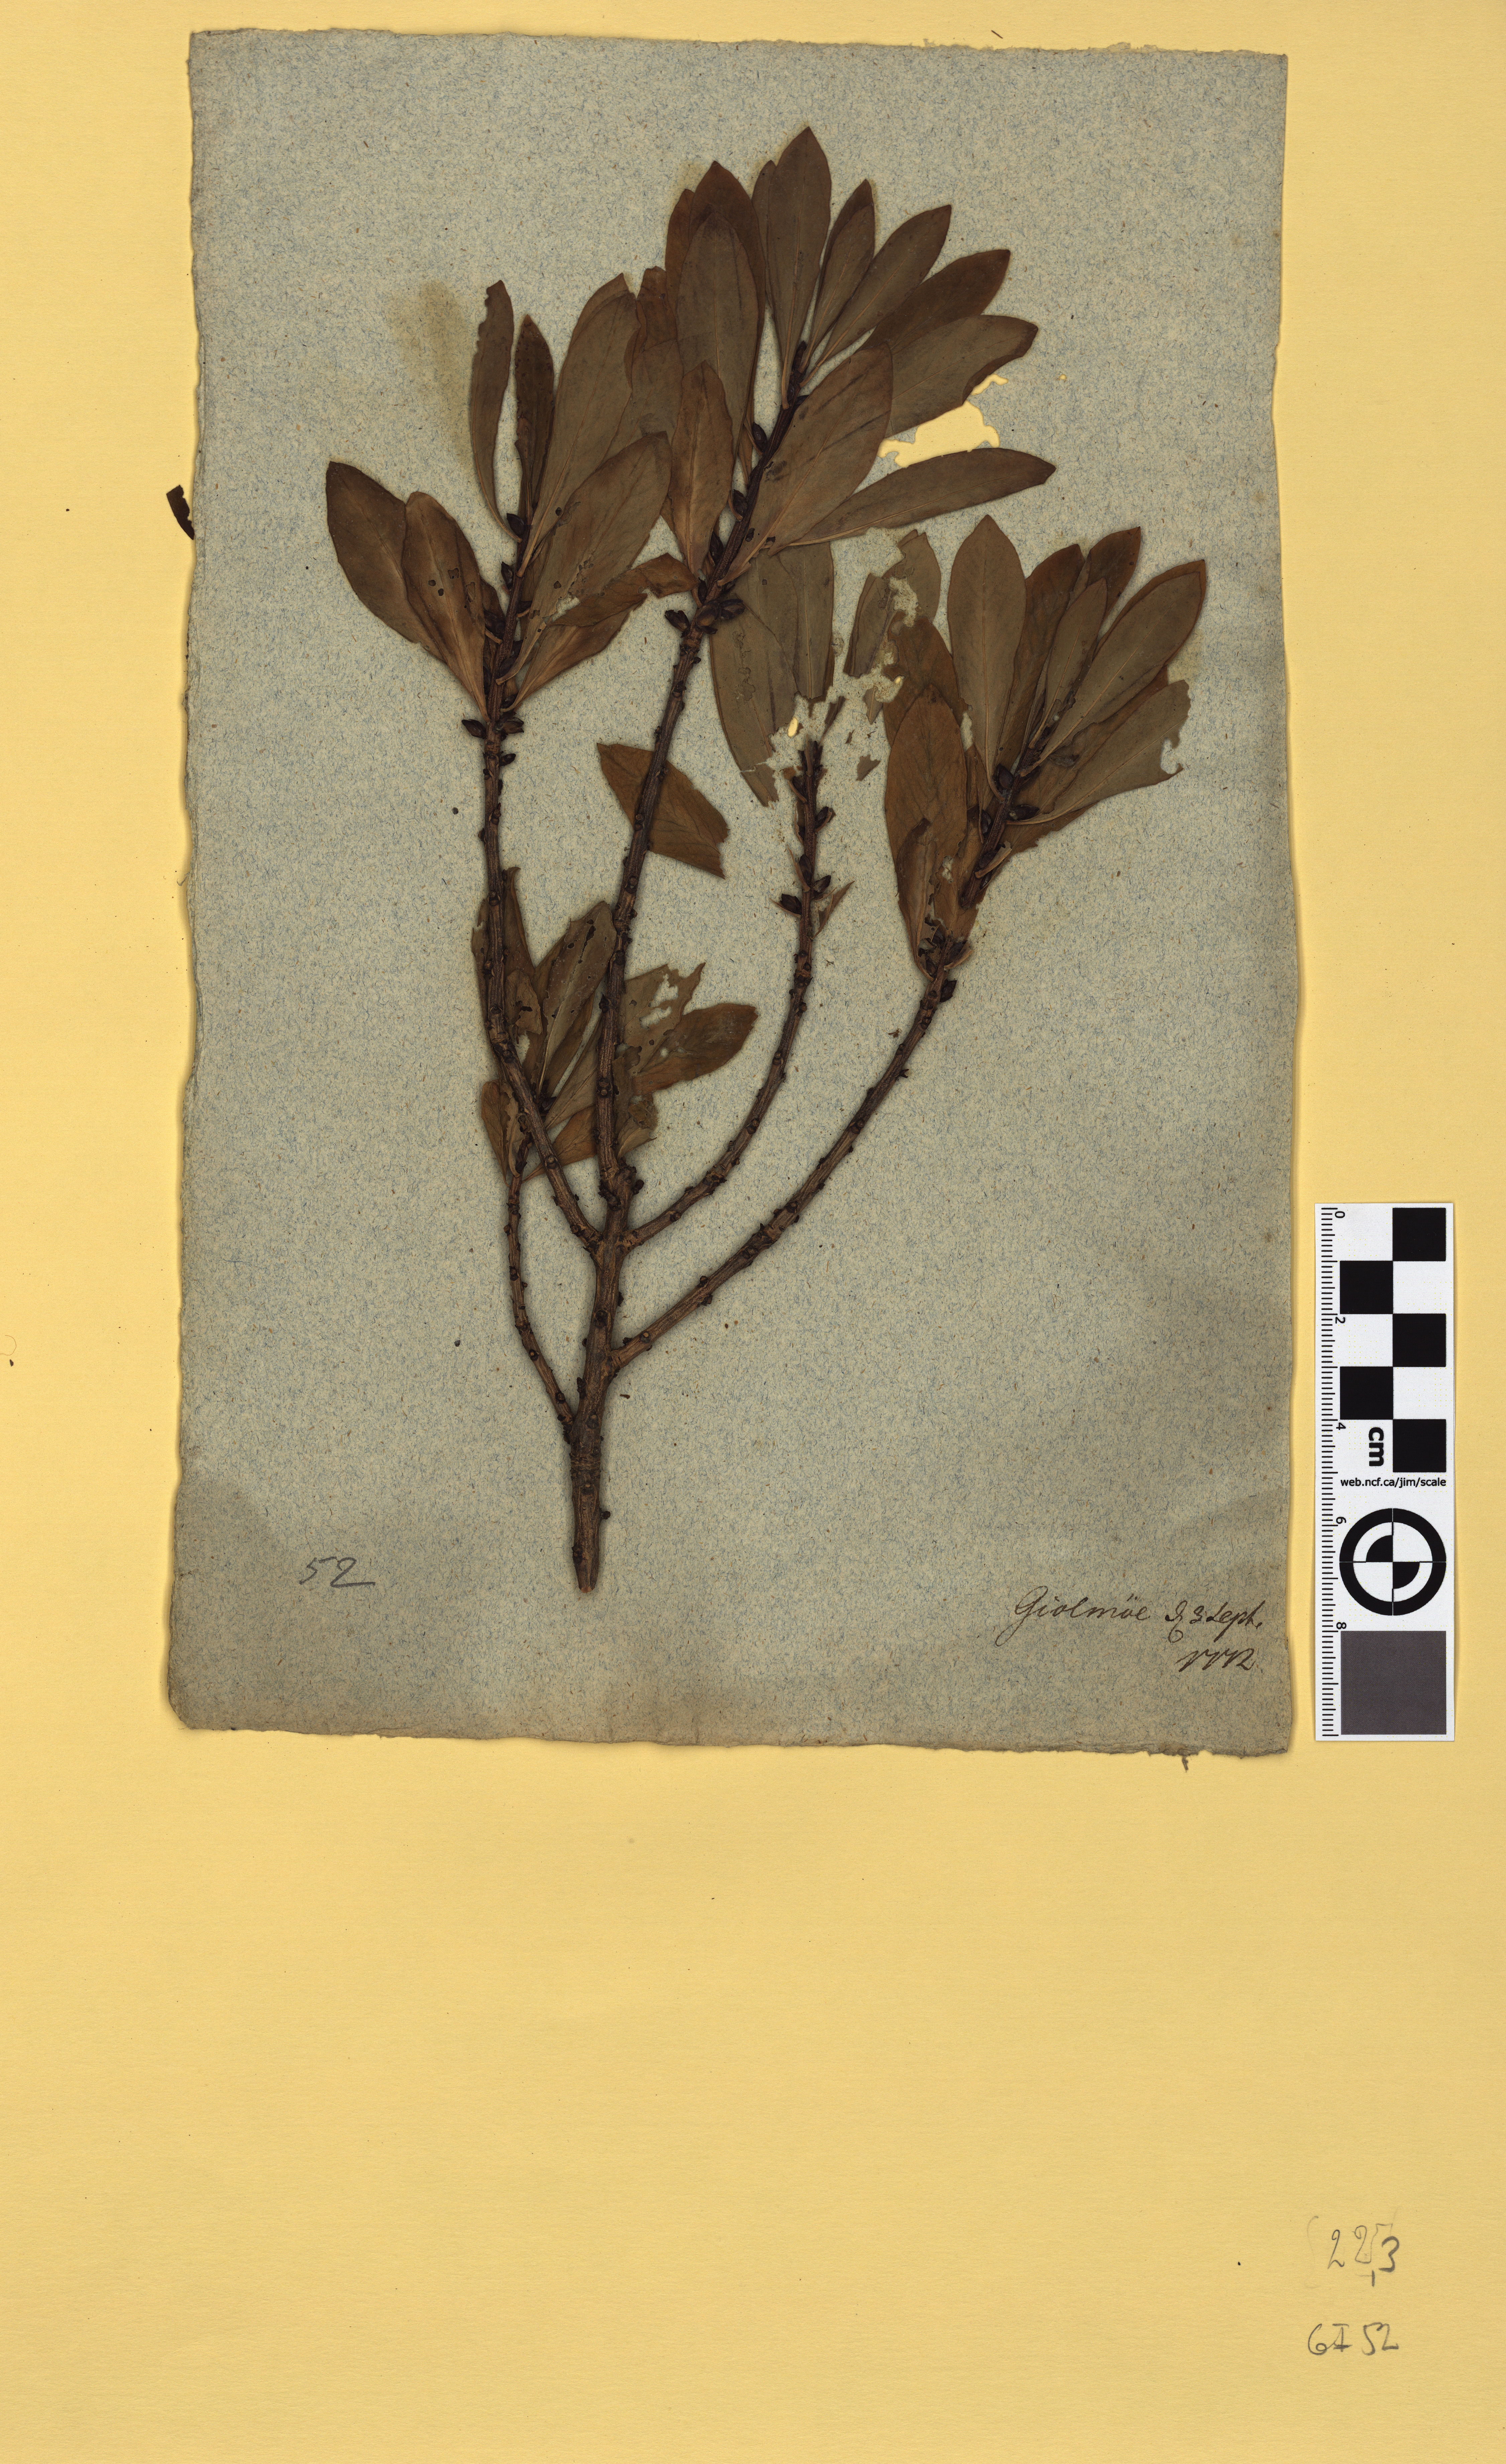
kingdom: Plantae
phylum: Tracheophyta
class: Magnoliopsida
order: Malvales
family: Thymelaeaceae
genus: Daphne
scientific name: Daphne mezereum
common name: Mezereon
